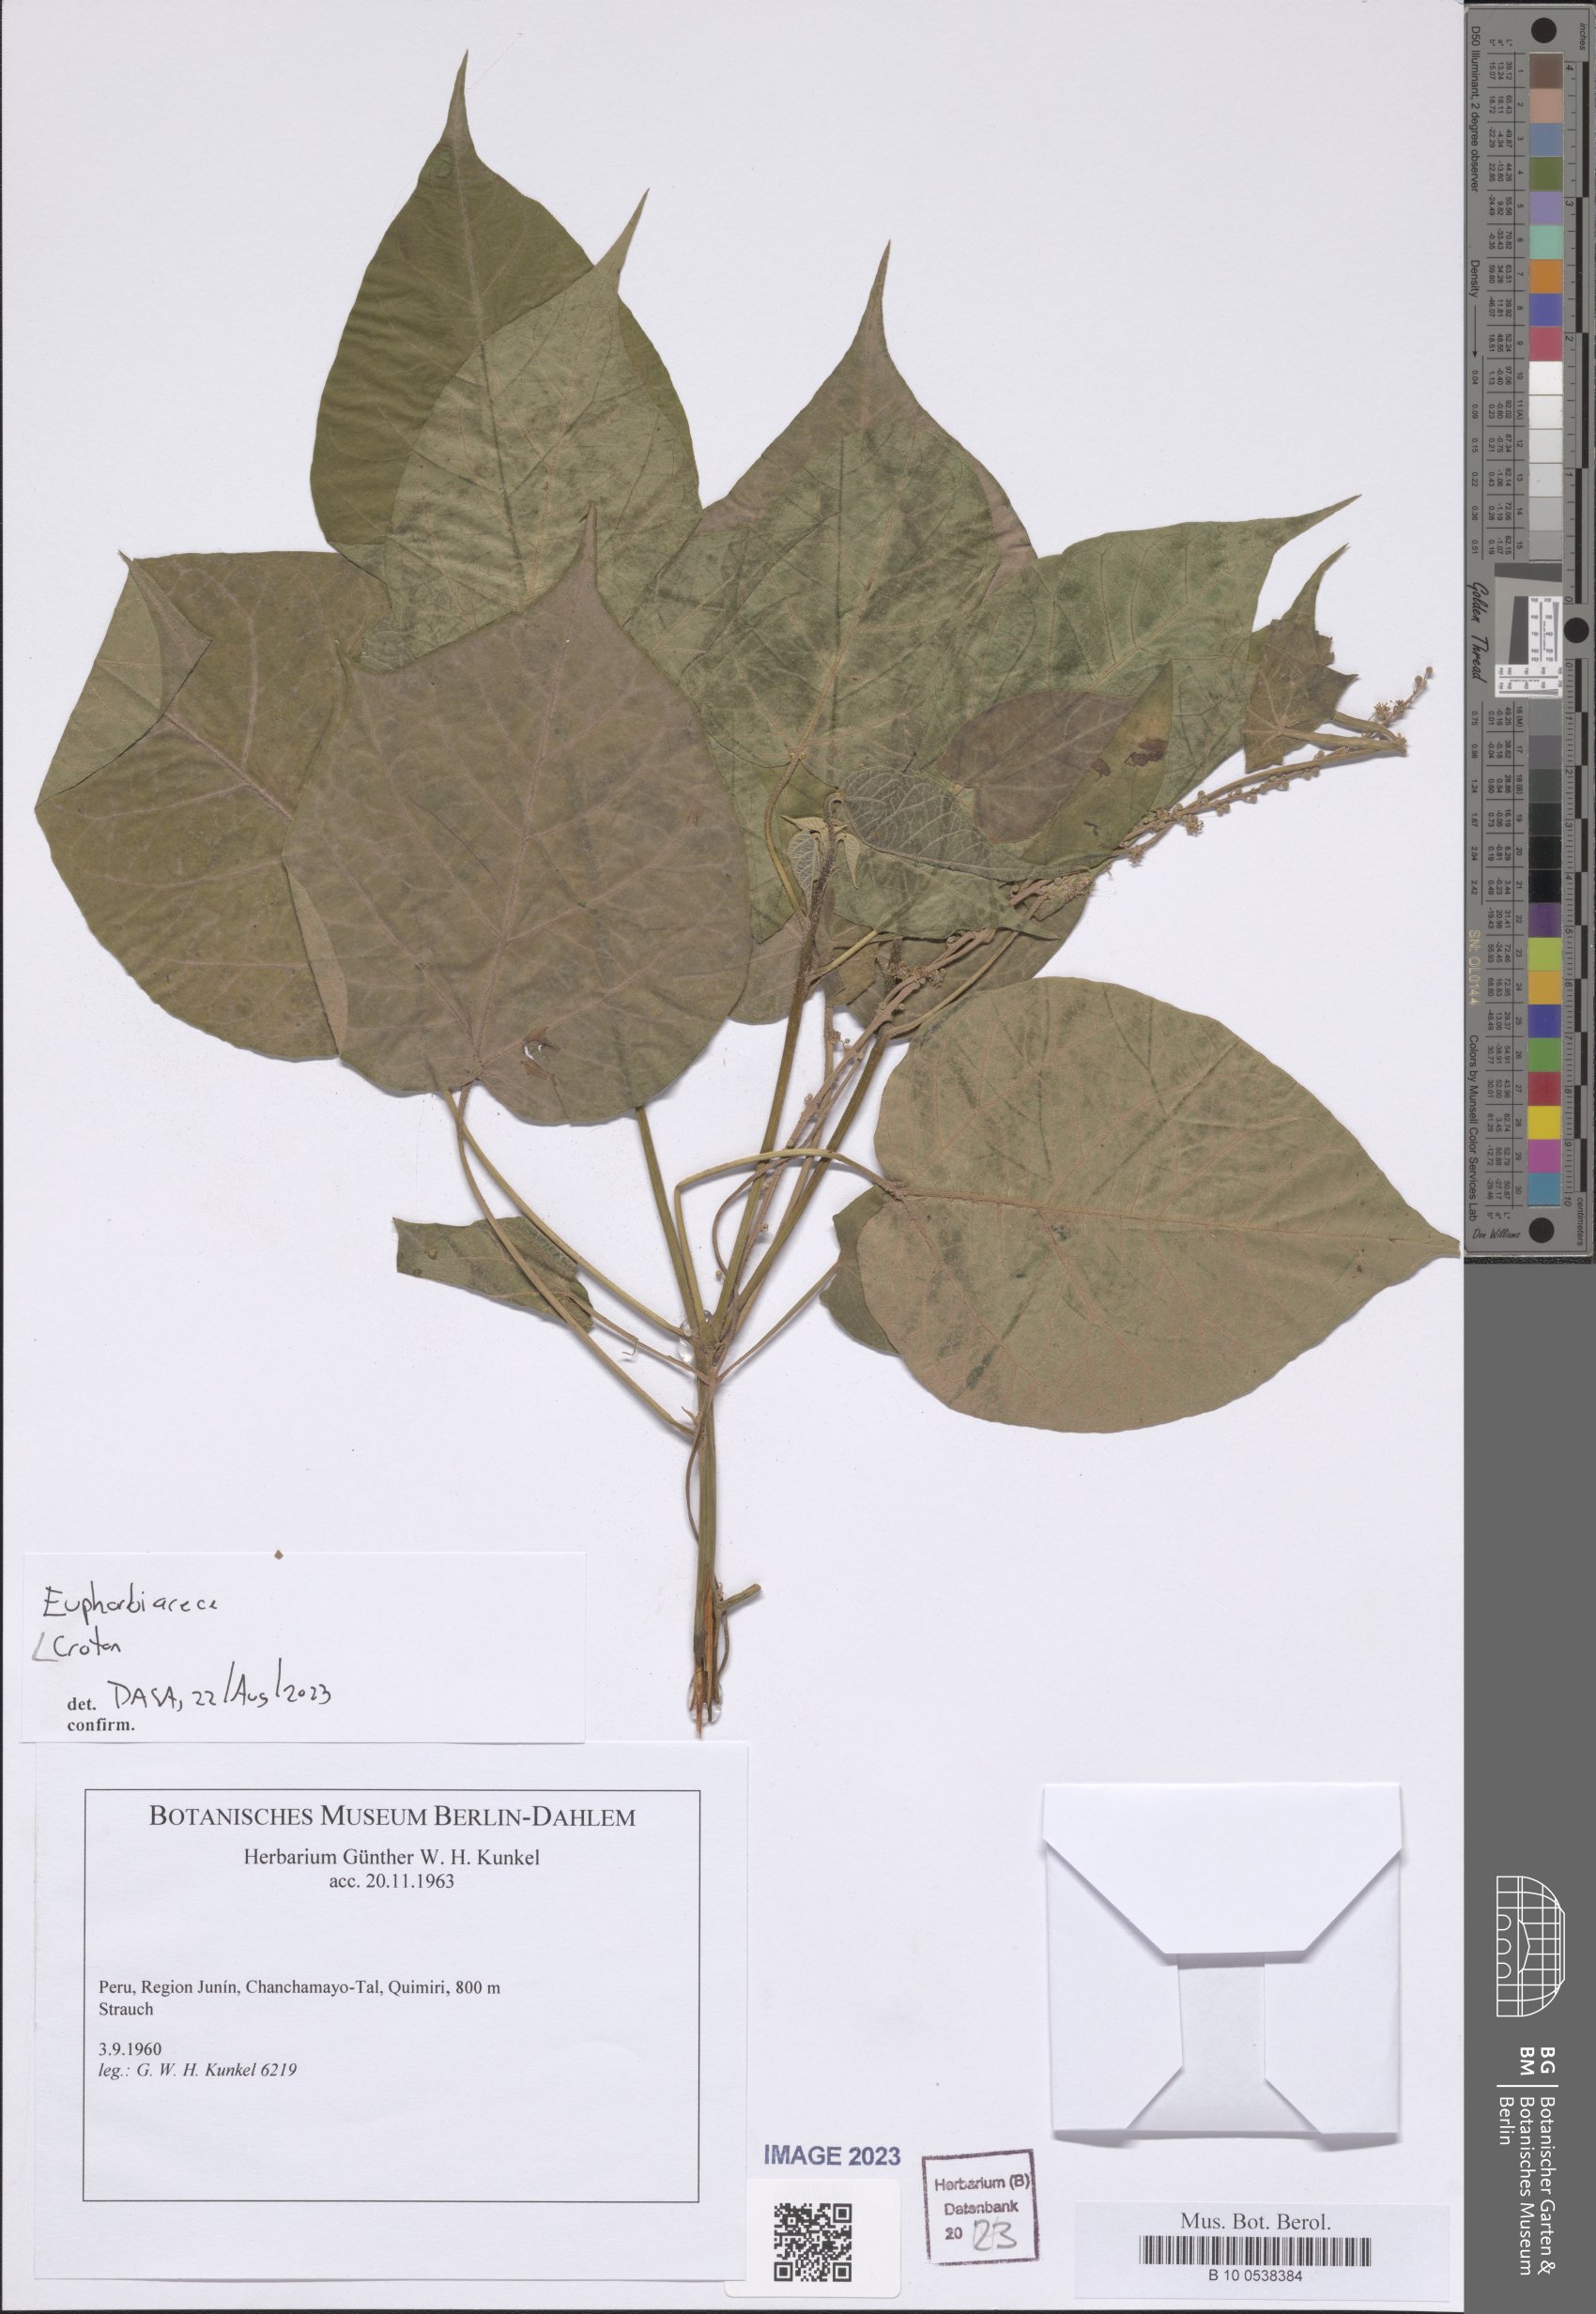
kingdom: Plantae
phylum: Tracheophyta
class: Magnoliopsida
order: Malpighiales
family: Euphorbiaceae
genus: Croton
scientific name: Croton
